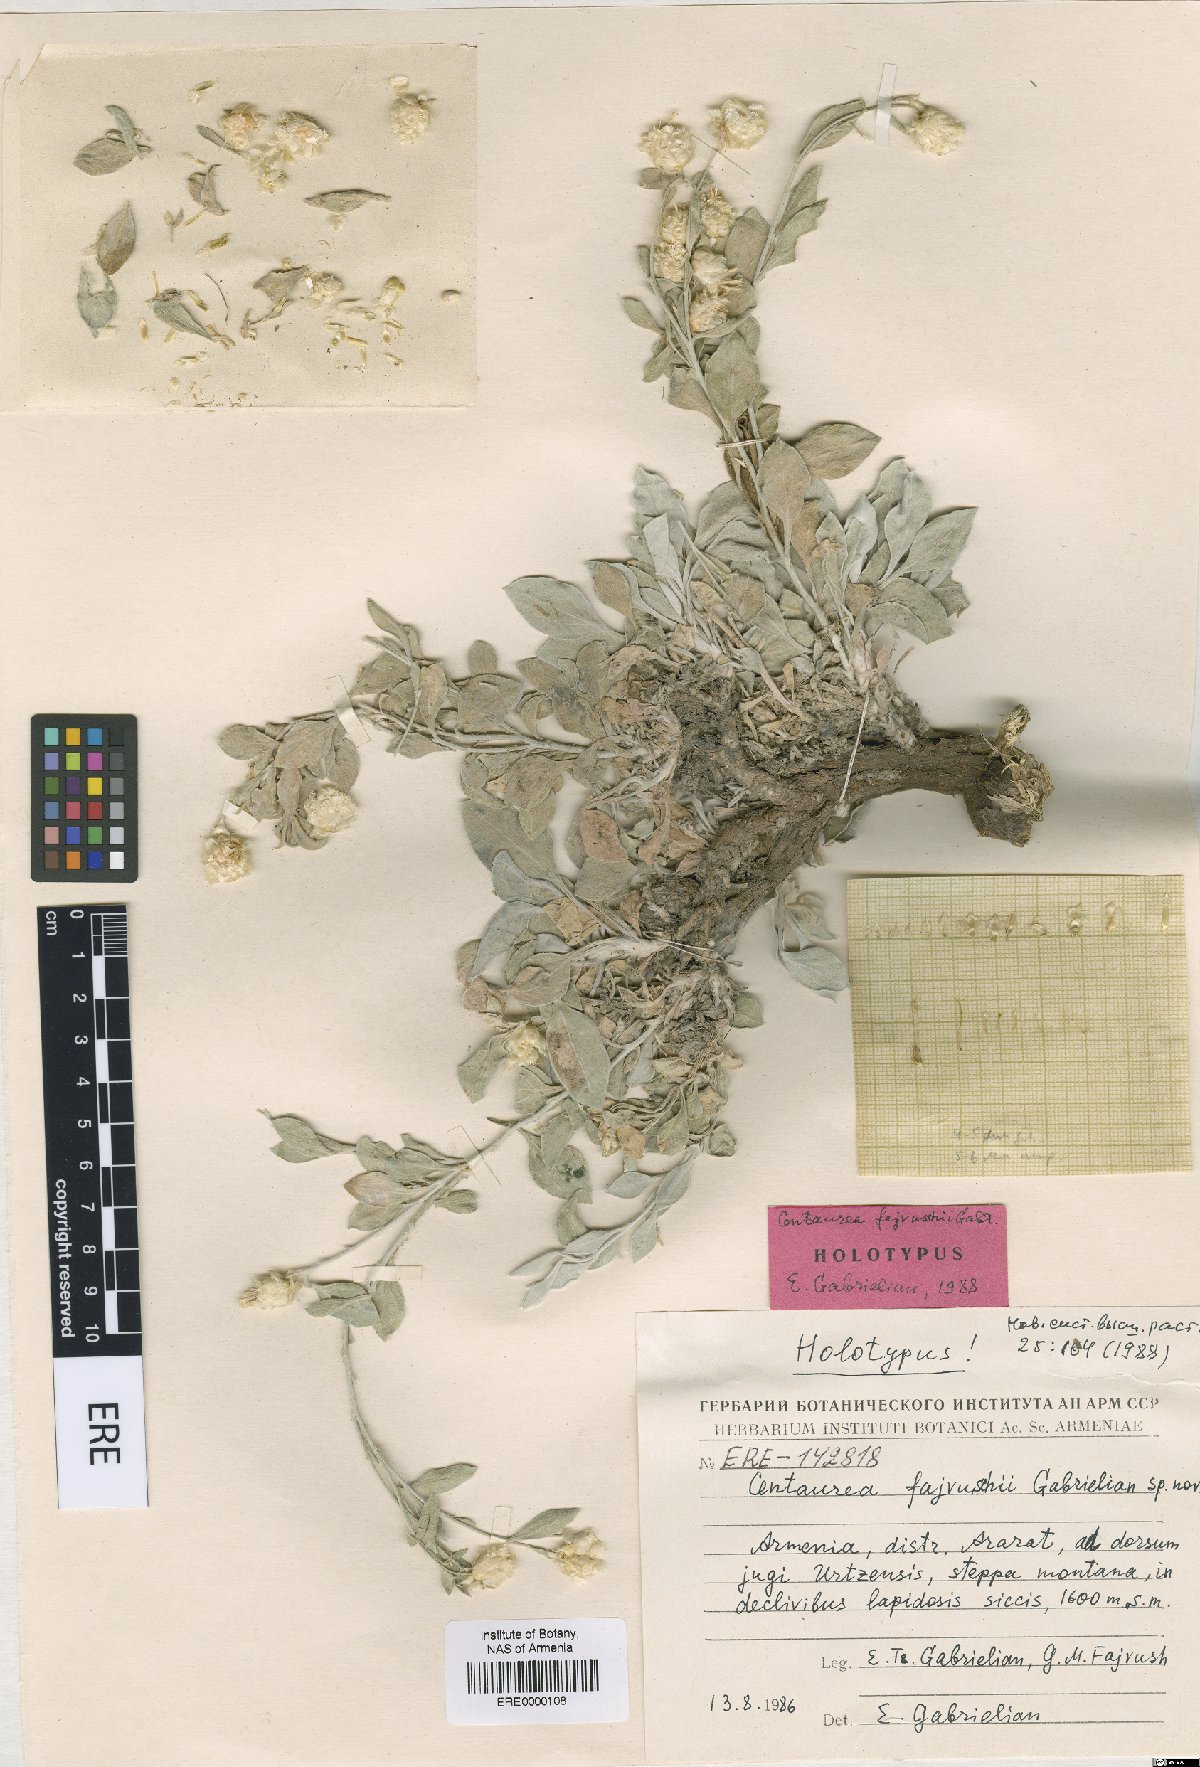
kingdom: Plantae
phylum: Tracheophyta
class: Magnoliopsida
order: Asterales
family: Asteraceae
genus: Psephellus
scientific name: Psephellus fajvuschii
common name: Fayvush's centaury
